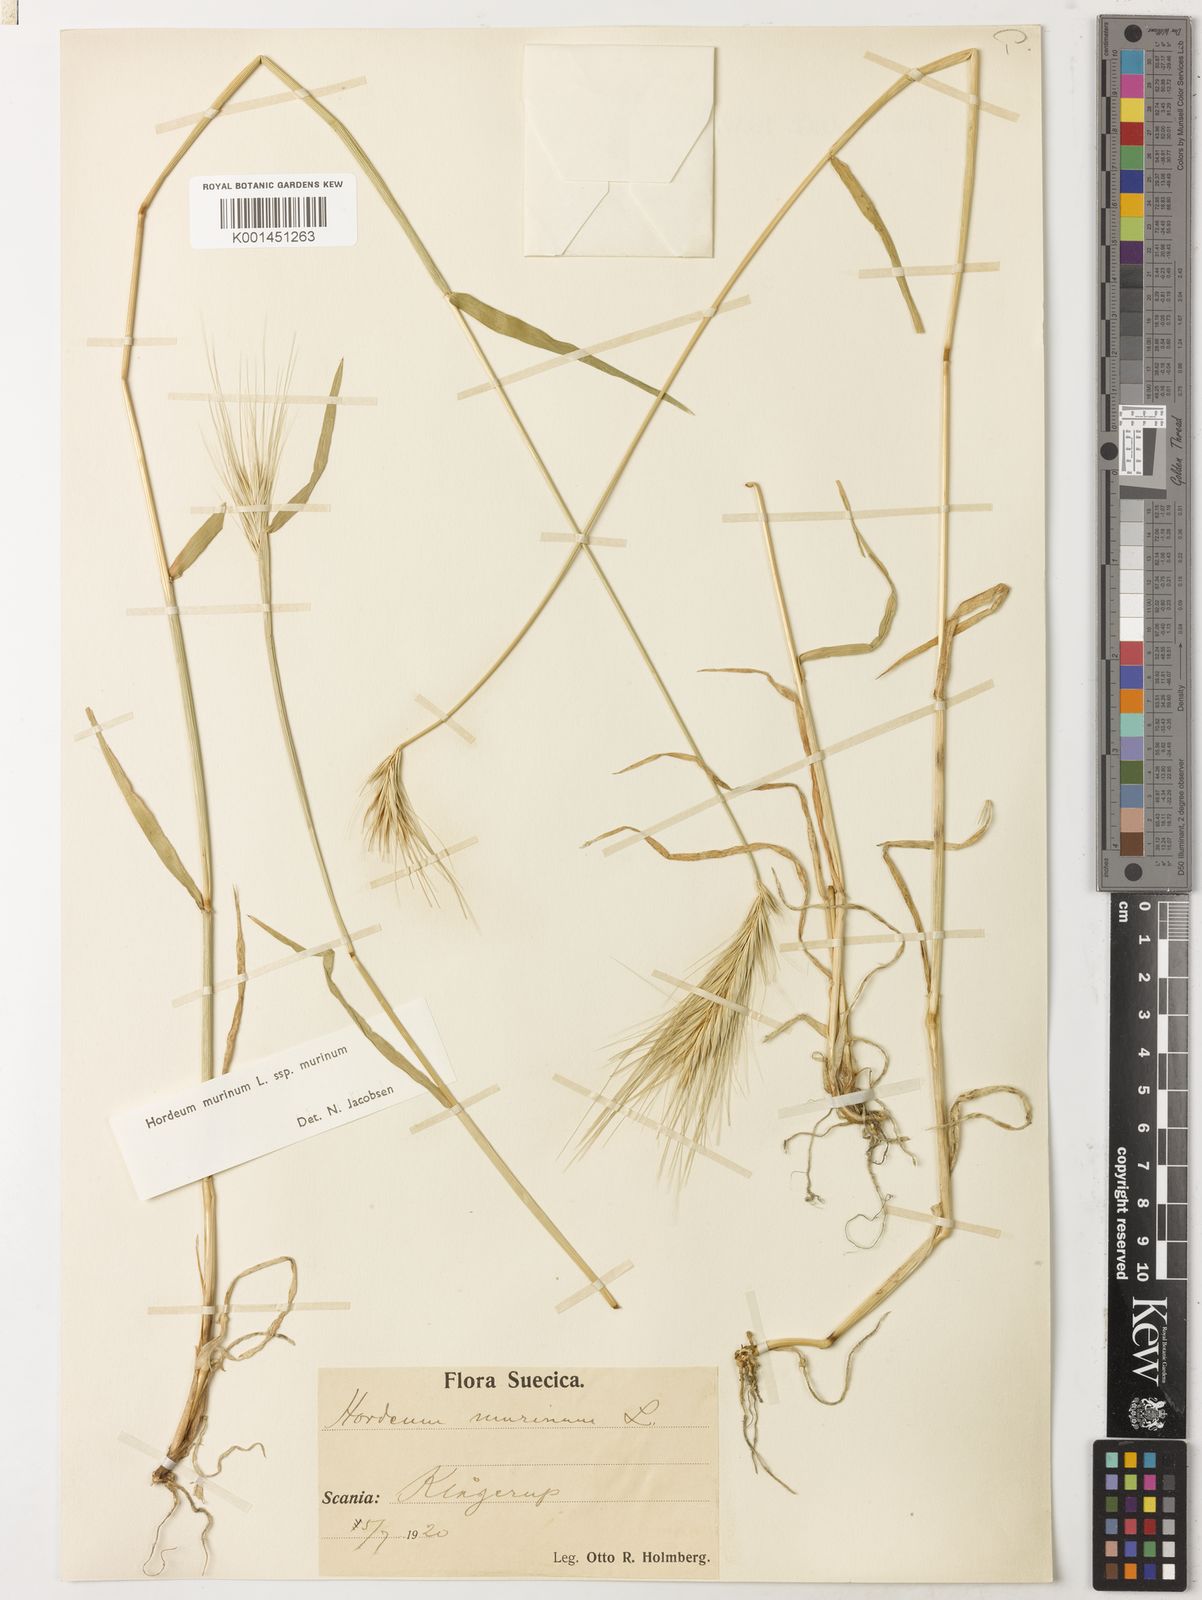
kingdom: Plantae
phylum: Tracheophyta
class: Liliopsida
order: Poales
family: Poaceae
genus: Hordeum
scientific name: Hordeum murinum
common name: Wall barley
